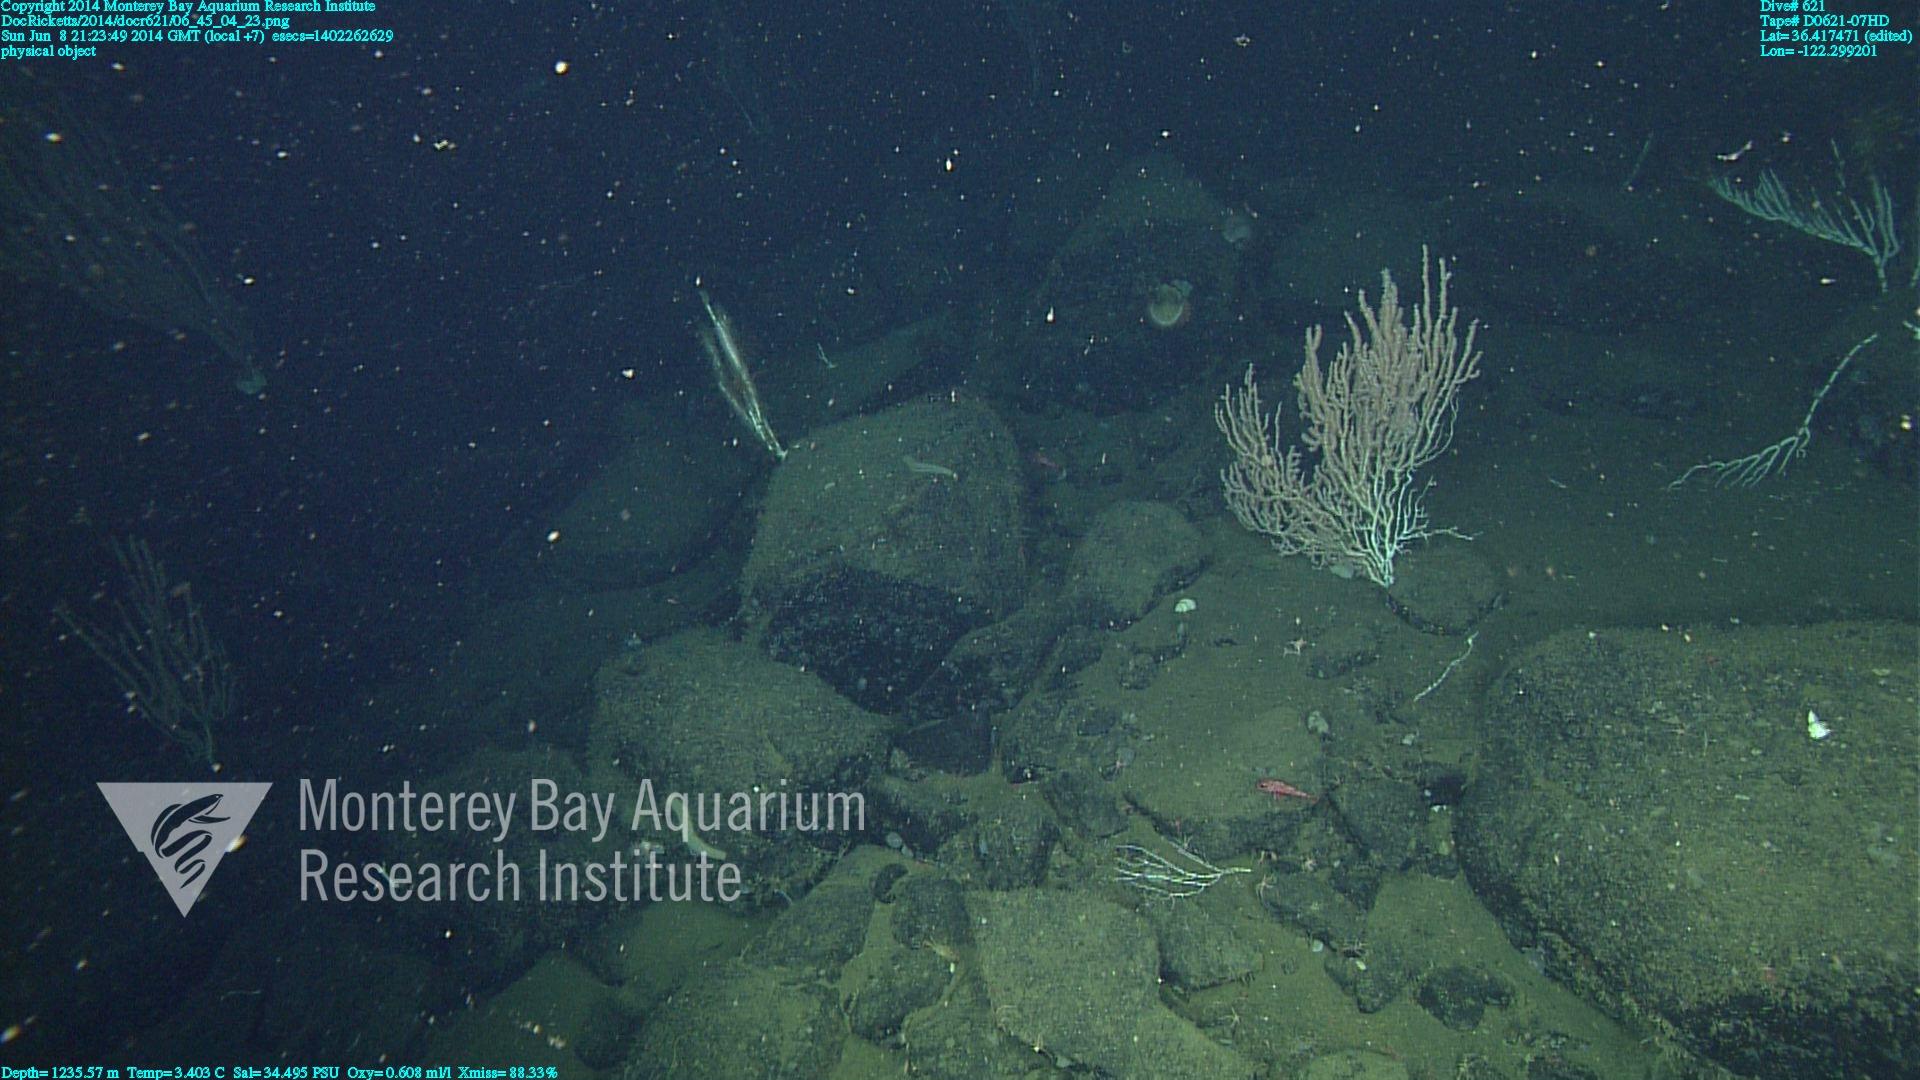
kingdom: Animalia
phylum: Cnidaria
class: Anthozoa
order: Scleralcyonacea
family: Keratoisididae
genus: Keratoisis
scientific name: Keratoisis
